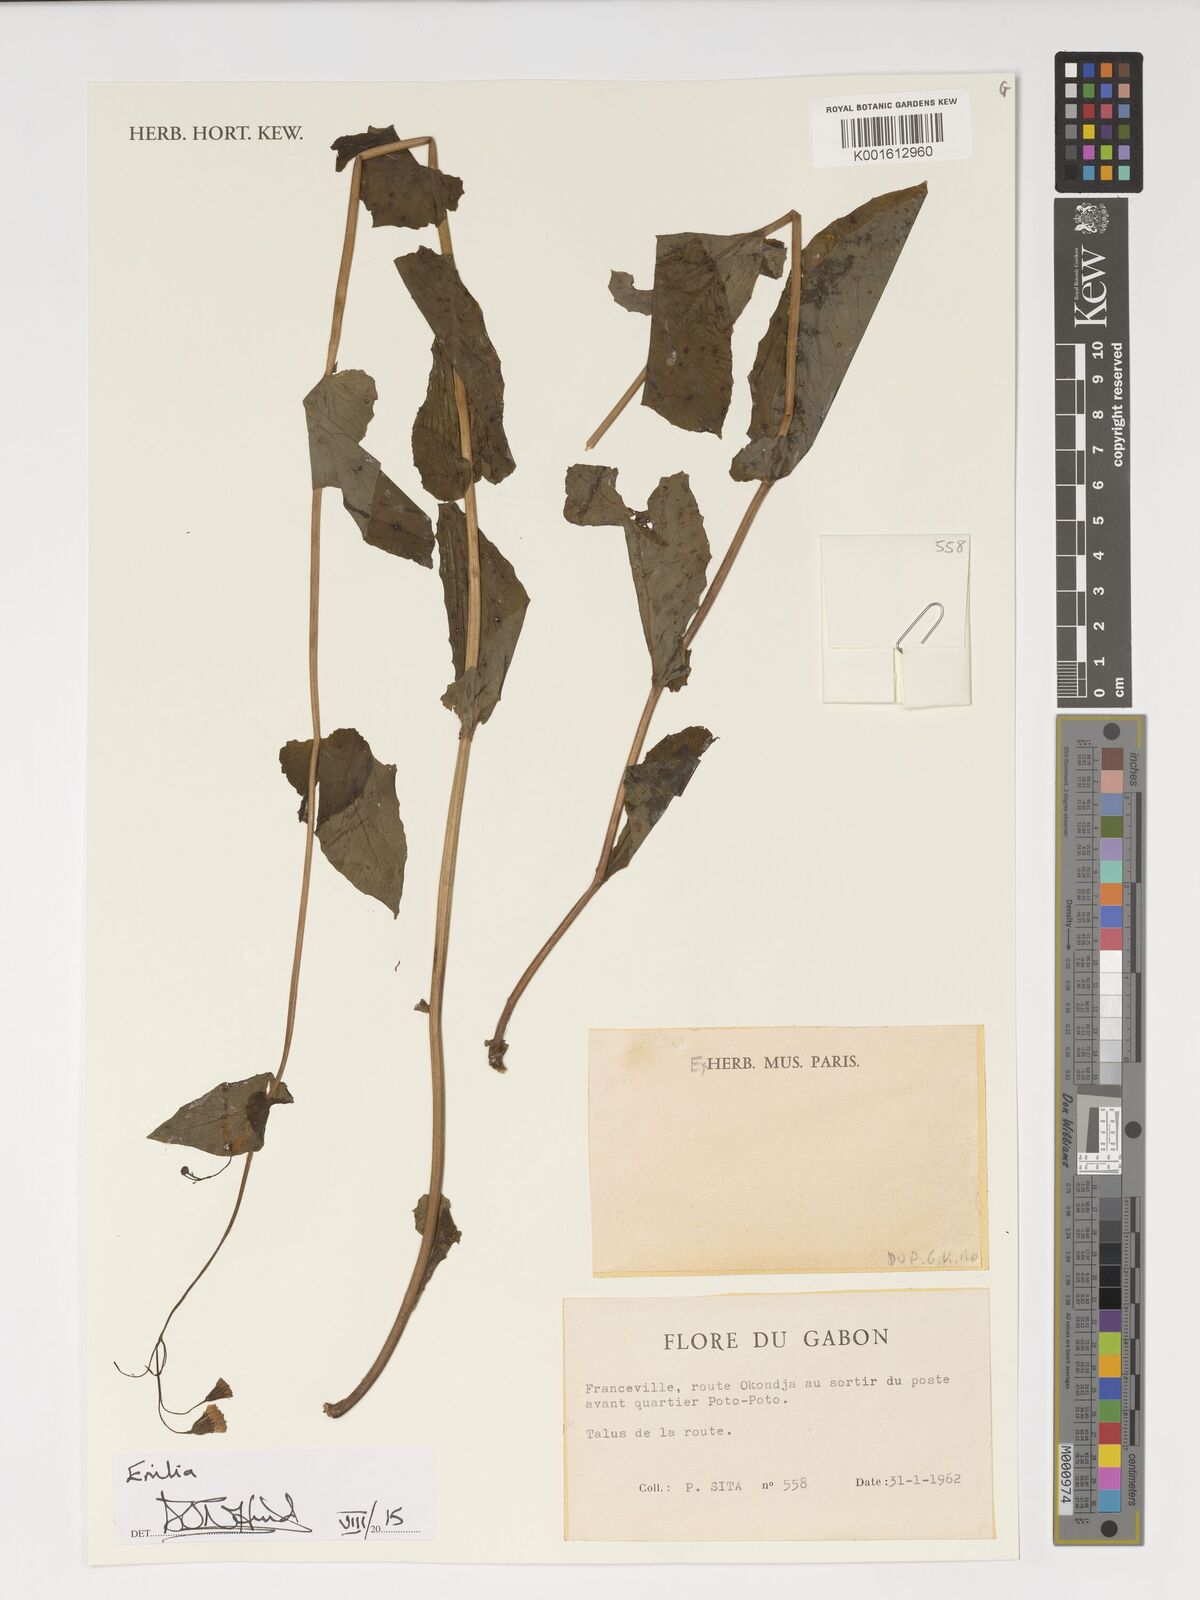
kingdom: Plantae
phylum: Tracheophyta
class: Magnoliopsida
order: Asterales
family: Asteraceae
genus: Emilia
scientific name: Emilia
